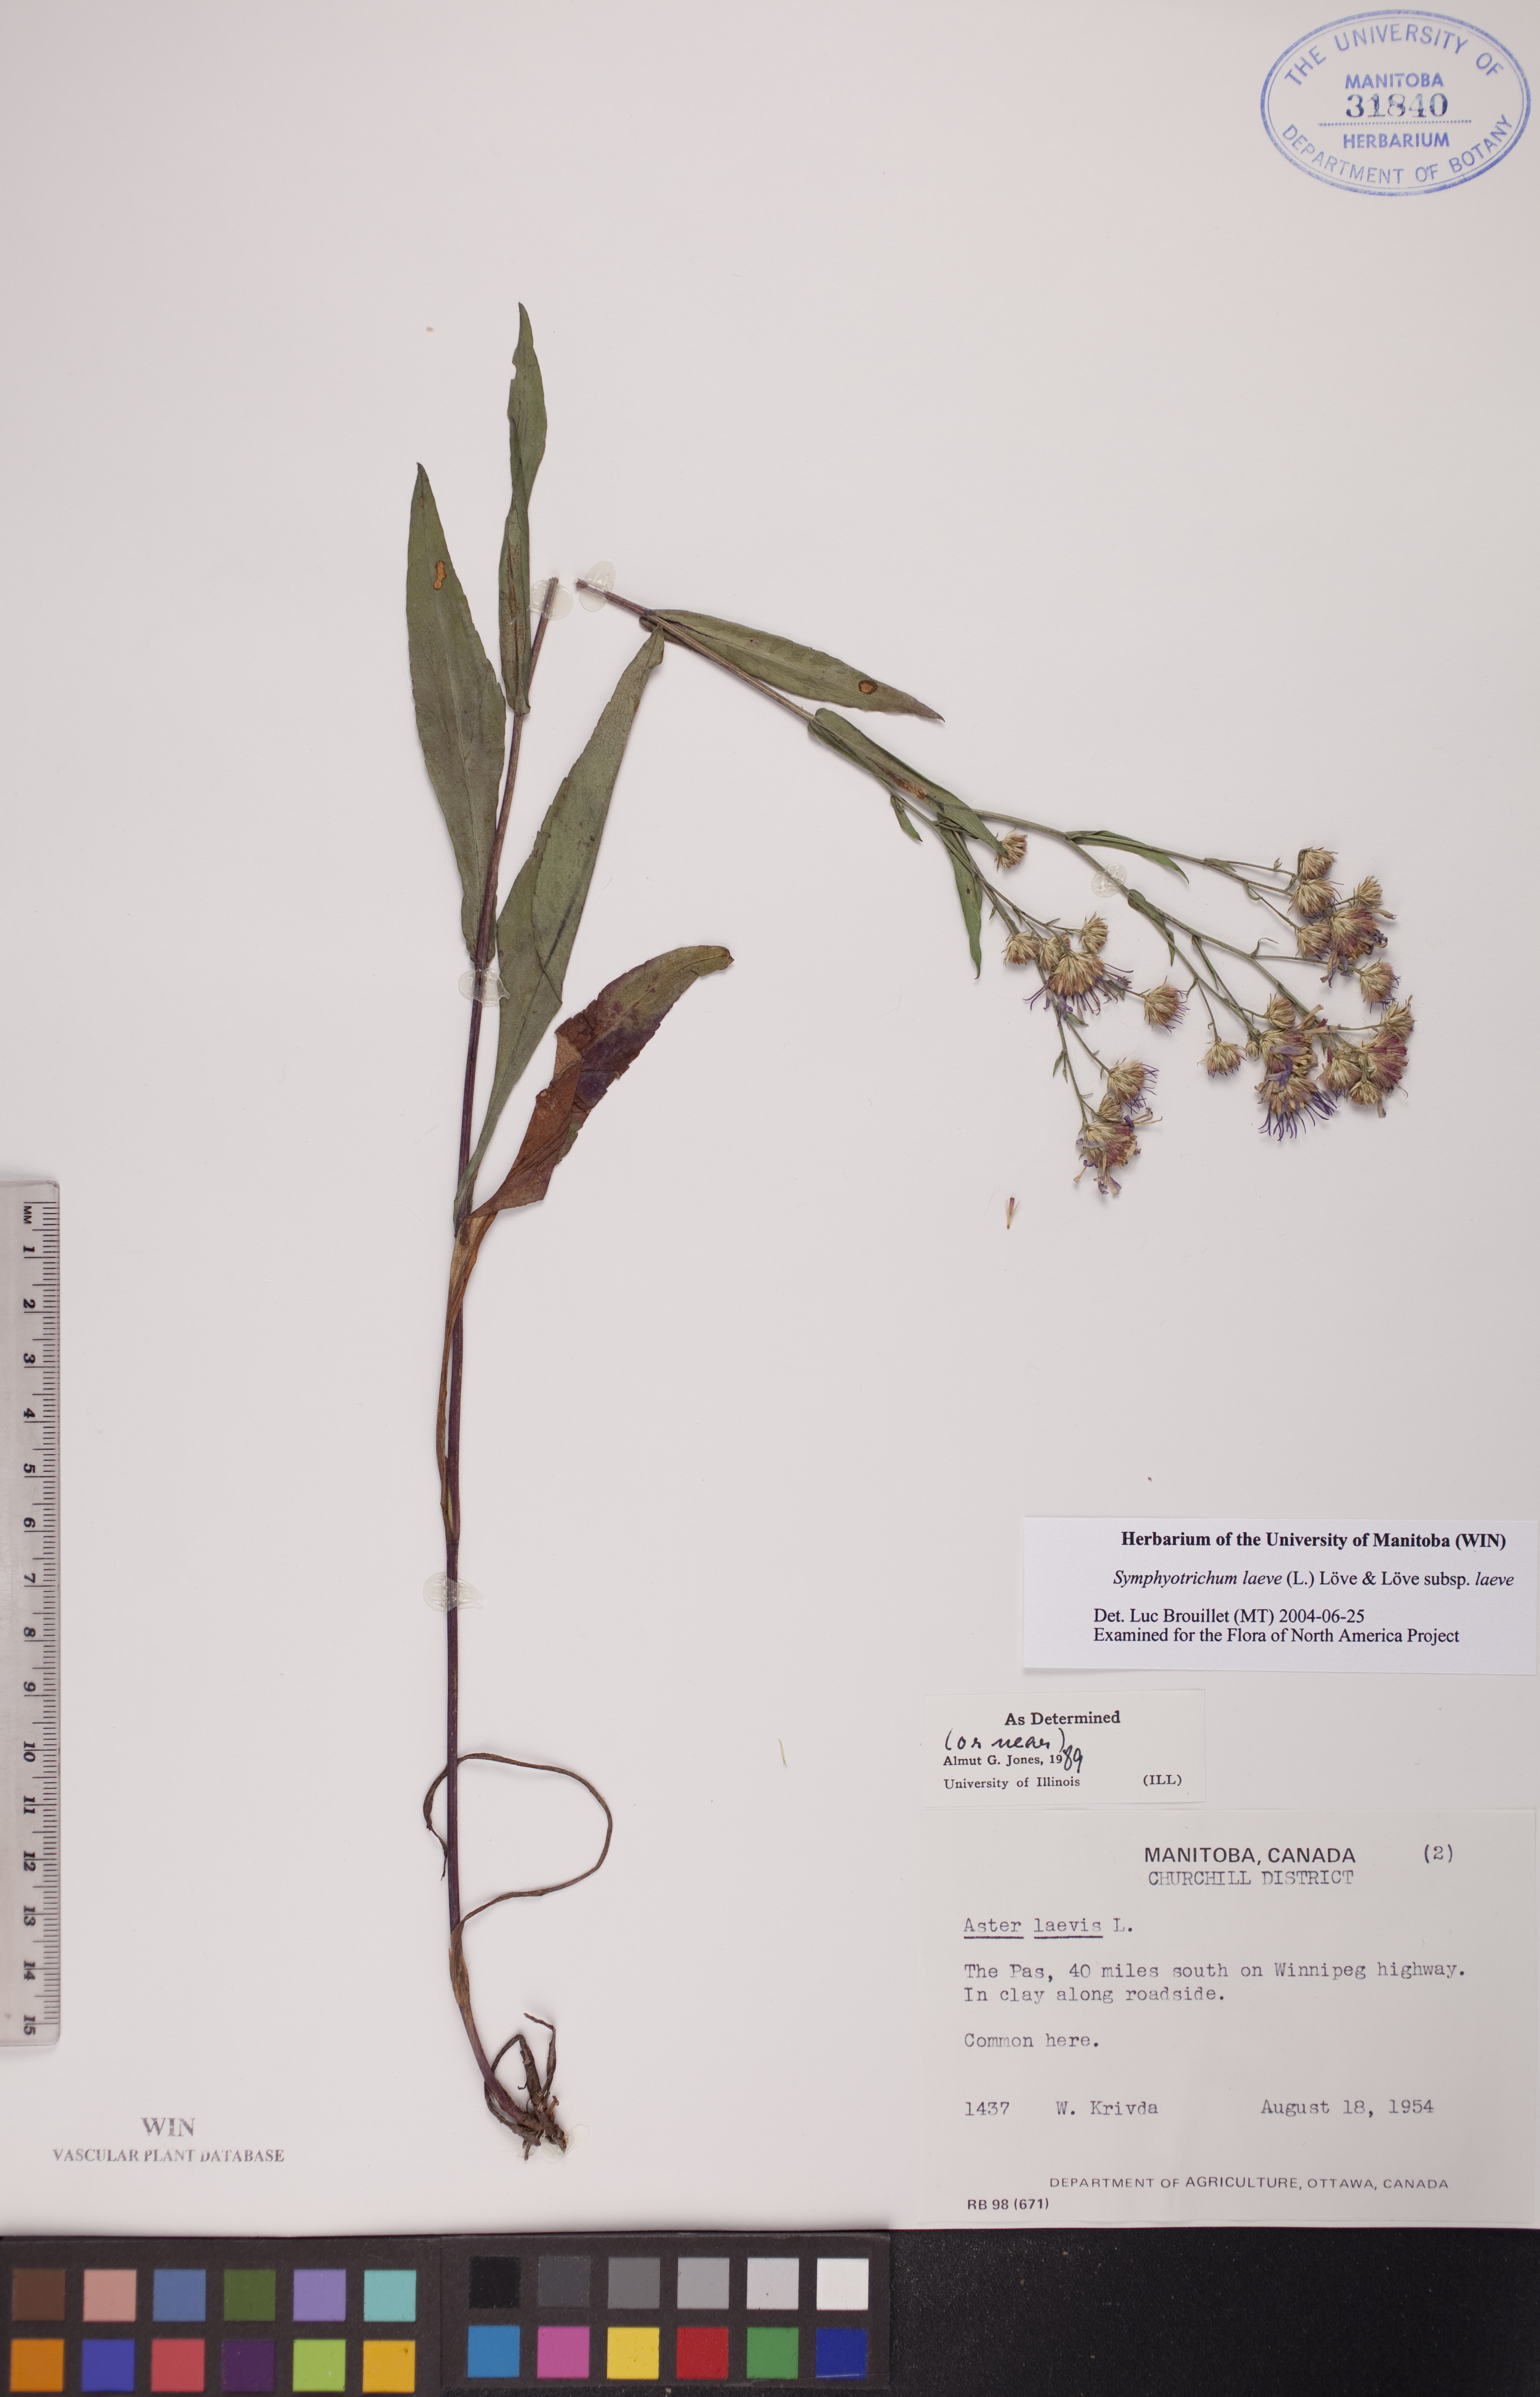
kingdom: Plantae
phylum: Tracheophyta
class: Magnoliopsida
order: Asterales
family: Asteraceae
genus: Symphyotrichum
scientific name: Symphyotrichum laeve
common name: Glaucous aster
